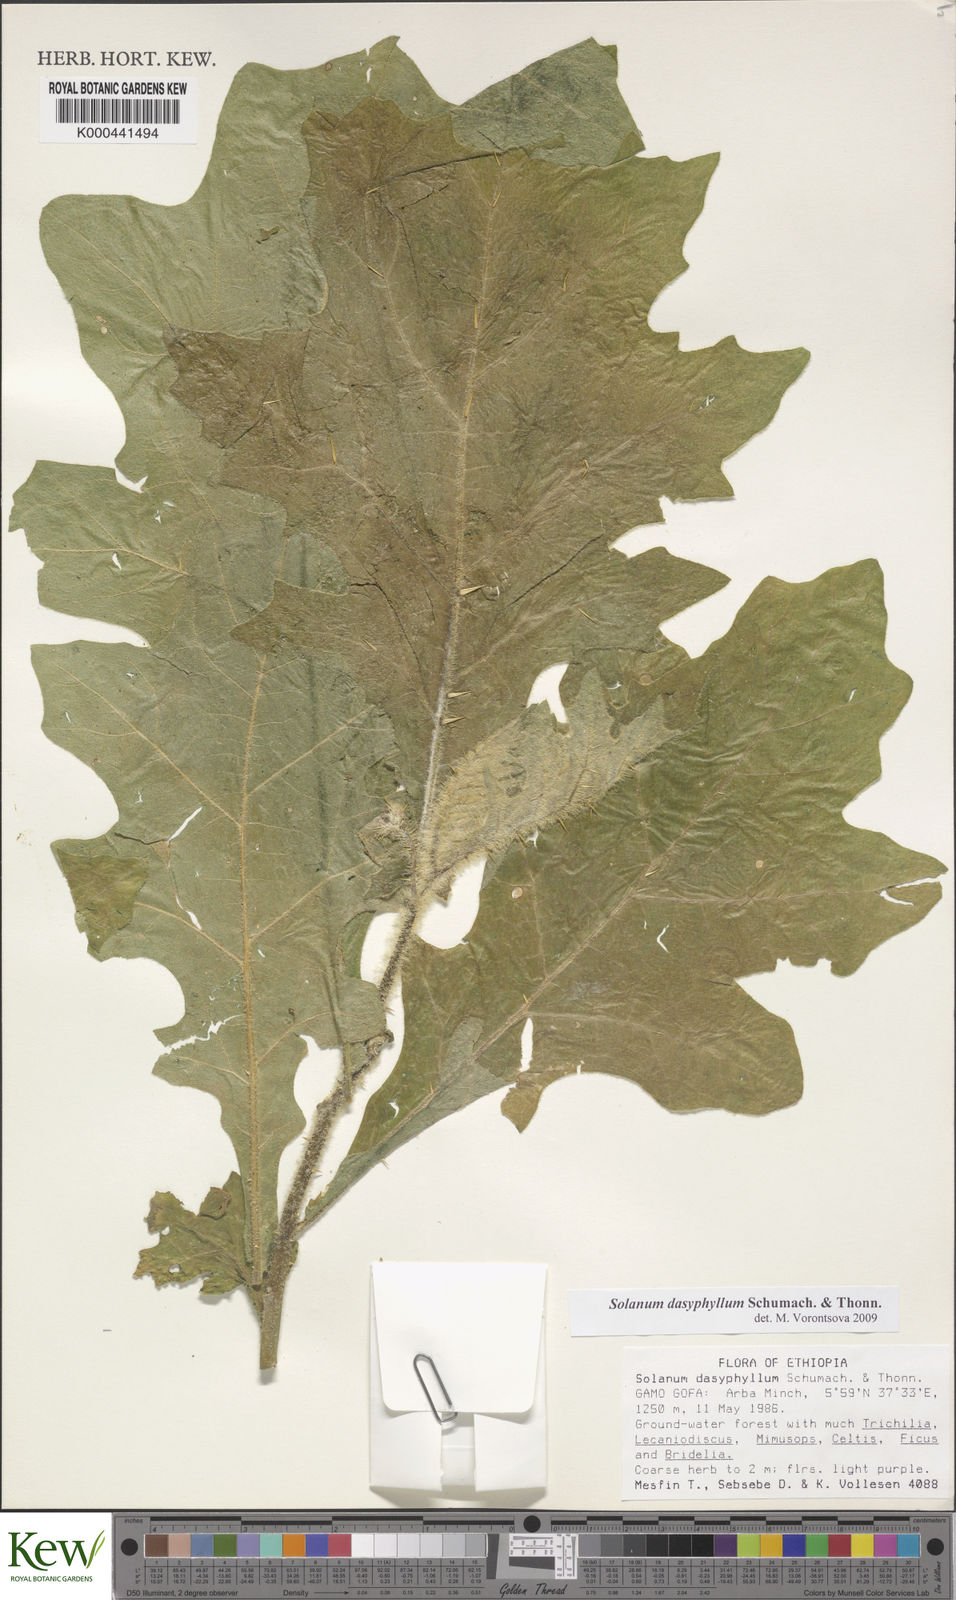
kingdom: Plantae
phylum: Tracheophyta
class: Magnoliopsida
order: Solanales
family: Solanaceae
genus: Solanum
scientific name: Solanum dasyphyllum
